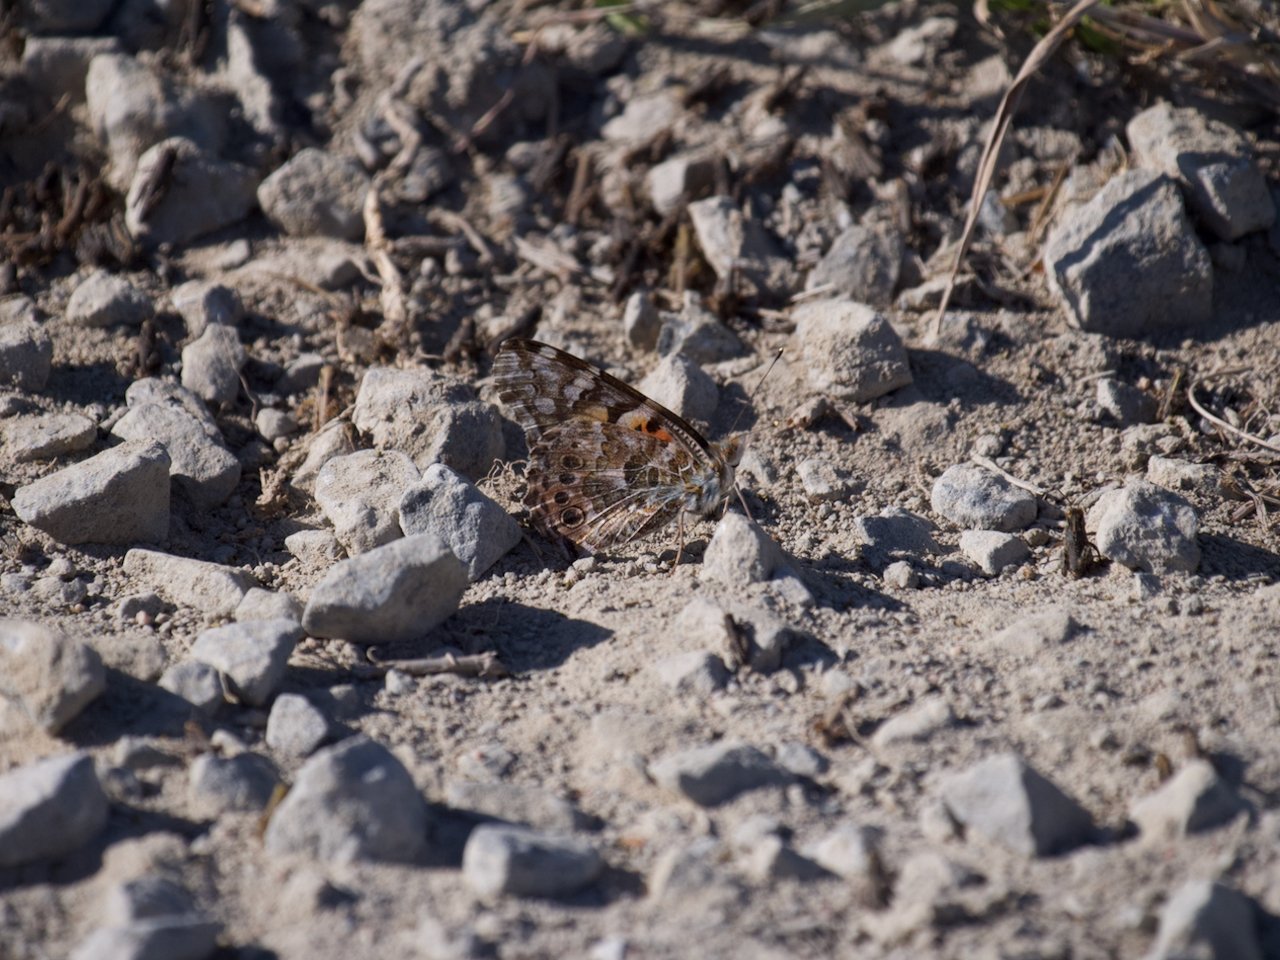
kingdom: Animalia
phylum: Arthropoda
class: Insecta
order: Lepidoptera
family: Nymphalidae
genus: Vanessa
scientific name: Vanessa cardui
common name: Painted Lady
